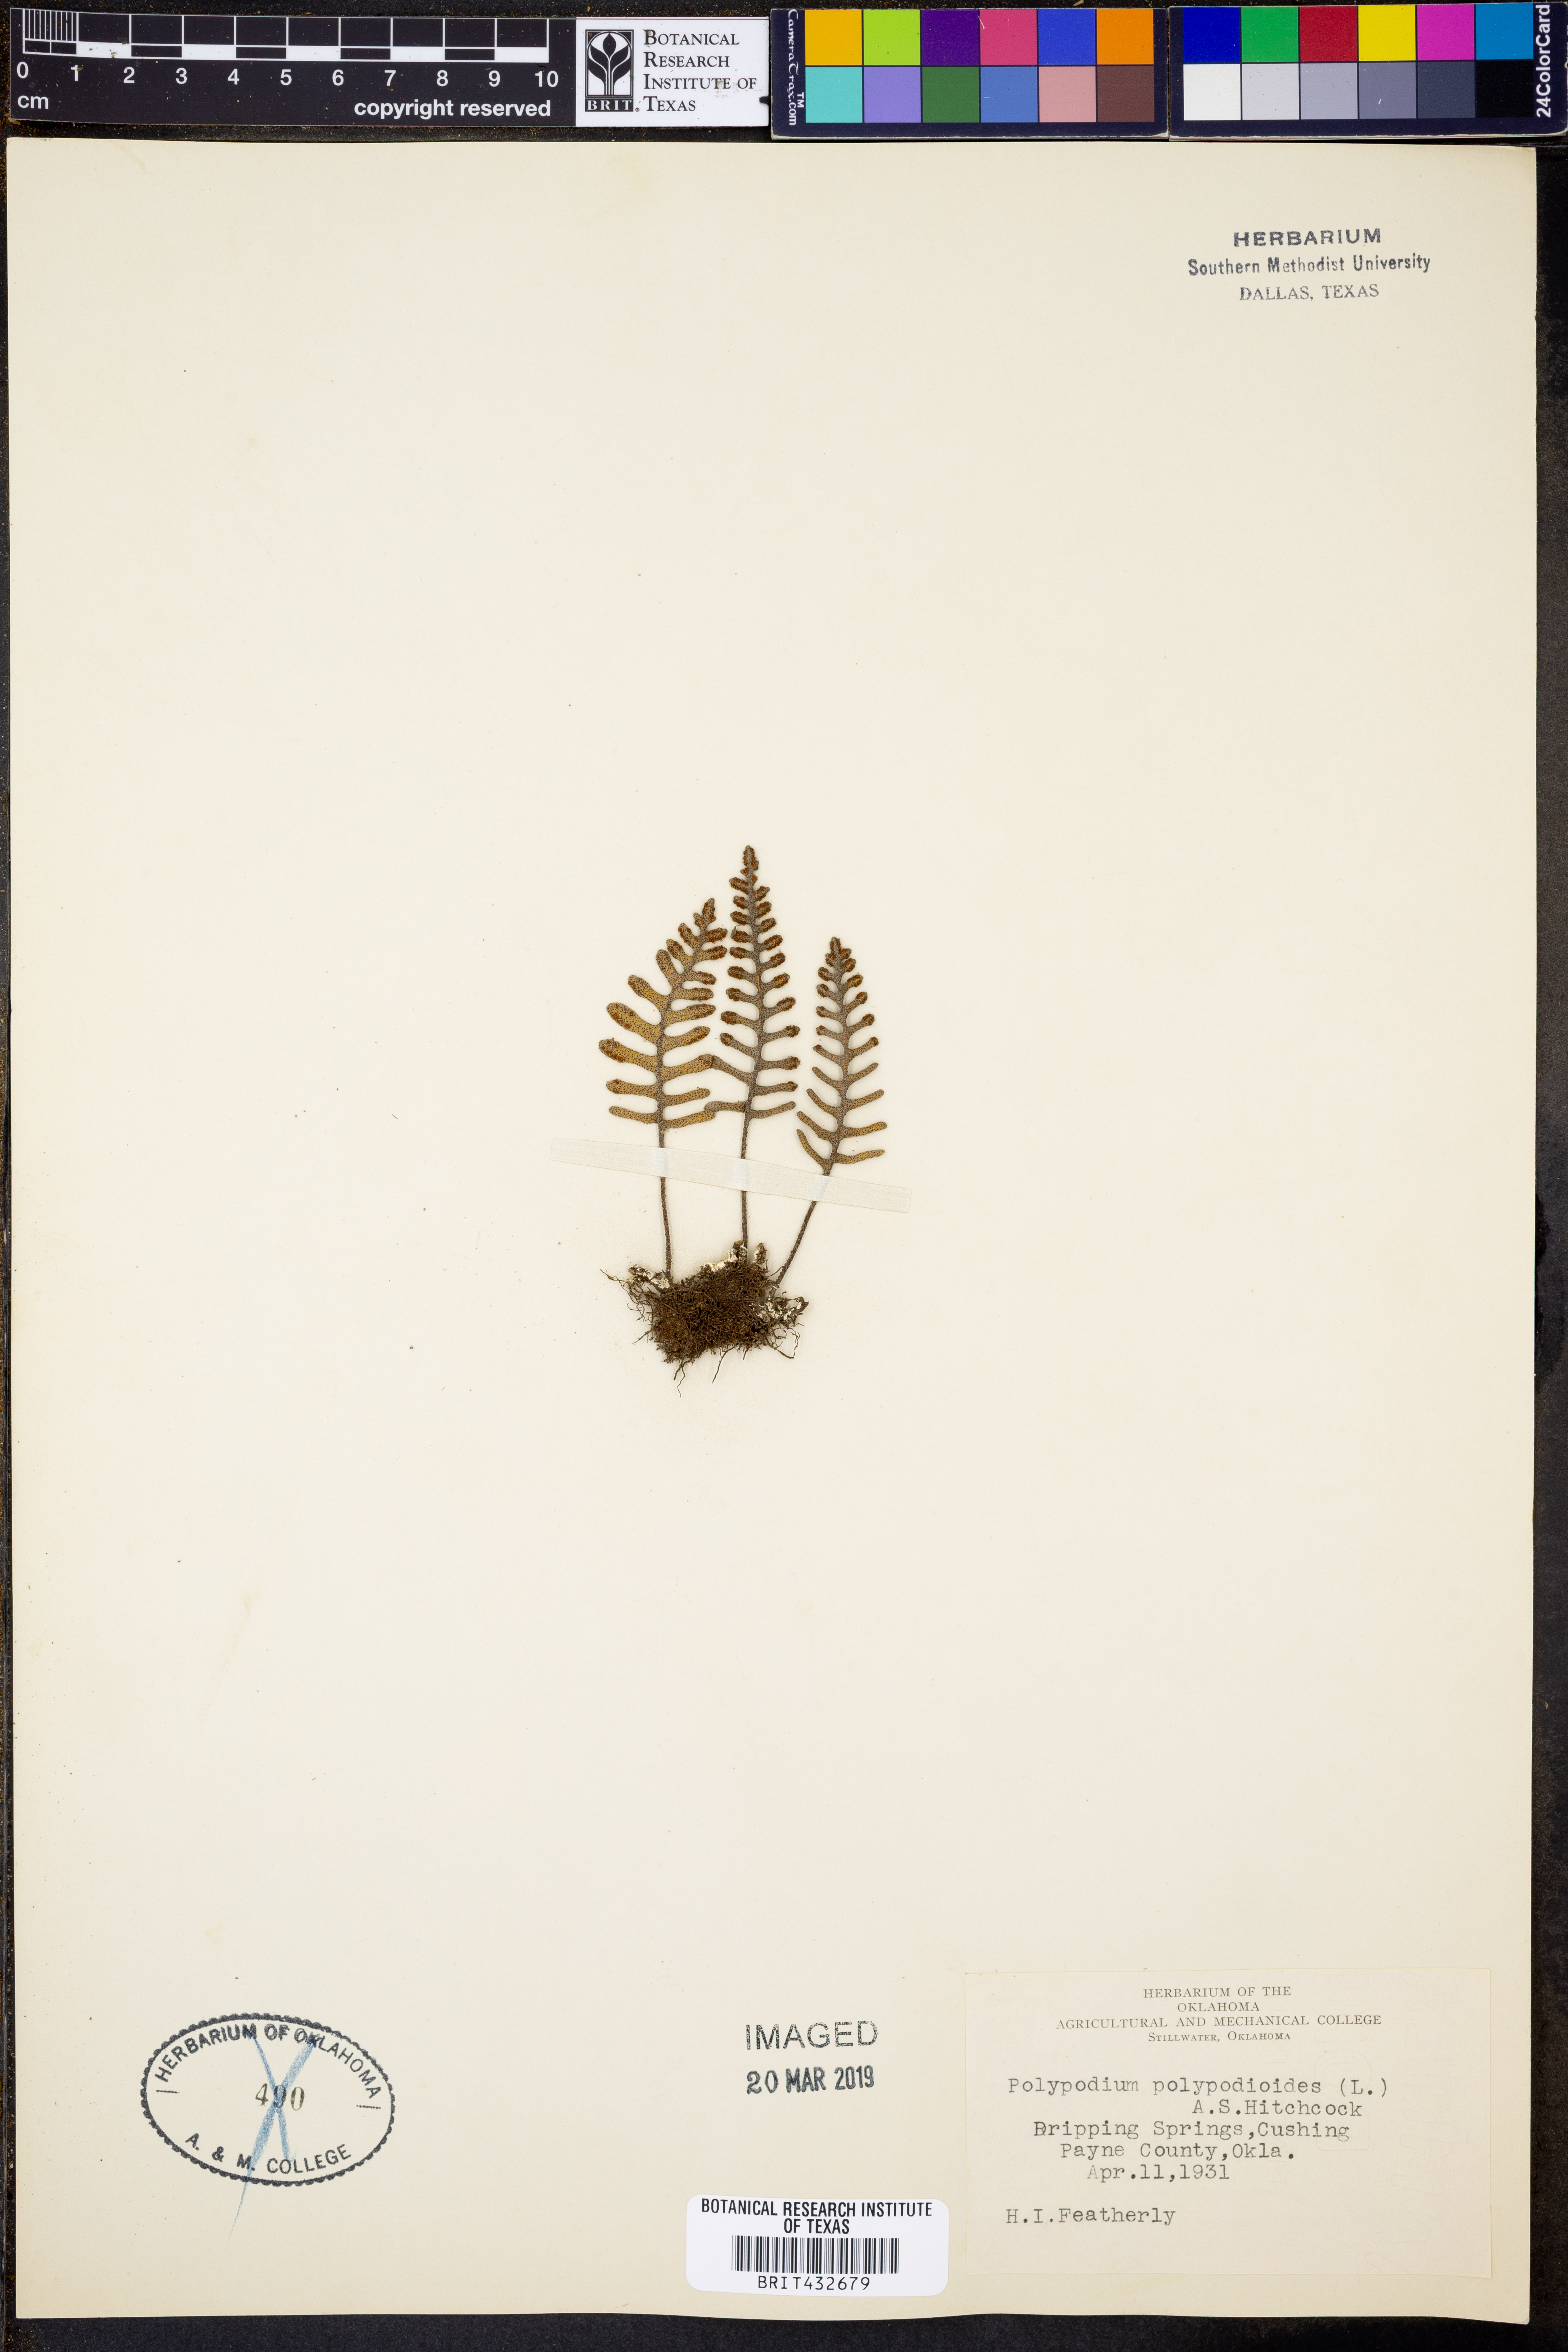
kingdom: Plantae
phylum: Tracheophyta
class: Polypodiopsida
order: Polypodiales
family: Polypodiaceae
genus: Pleopeltis
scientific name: Pleopeltis polypodioides
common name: Resurrection fern
